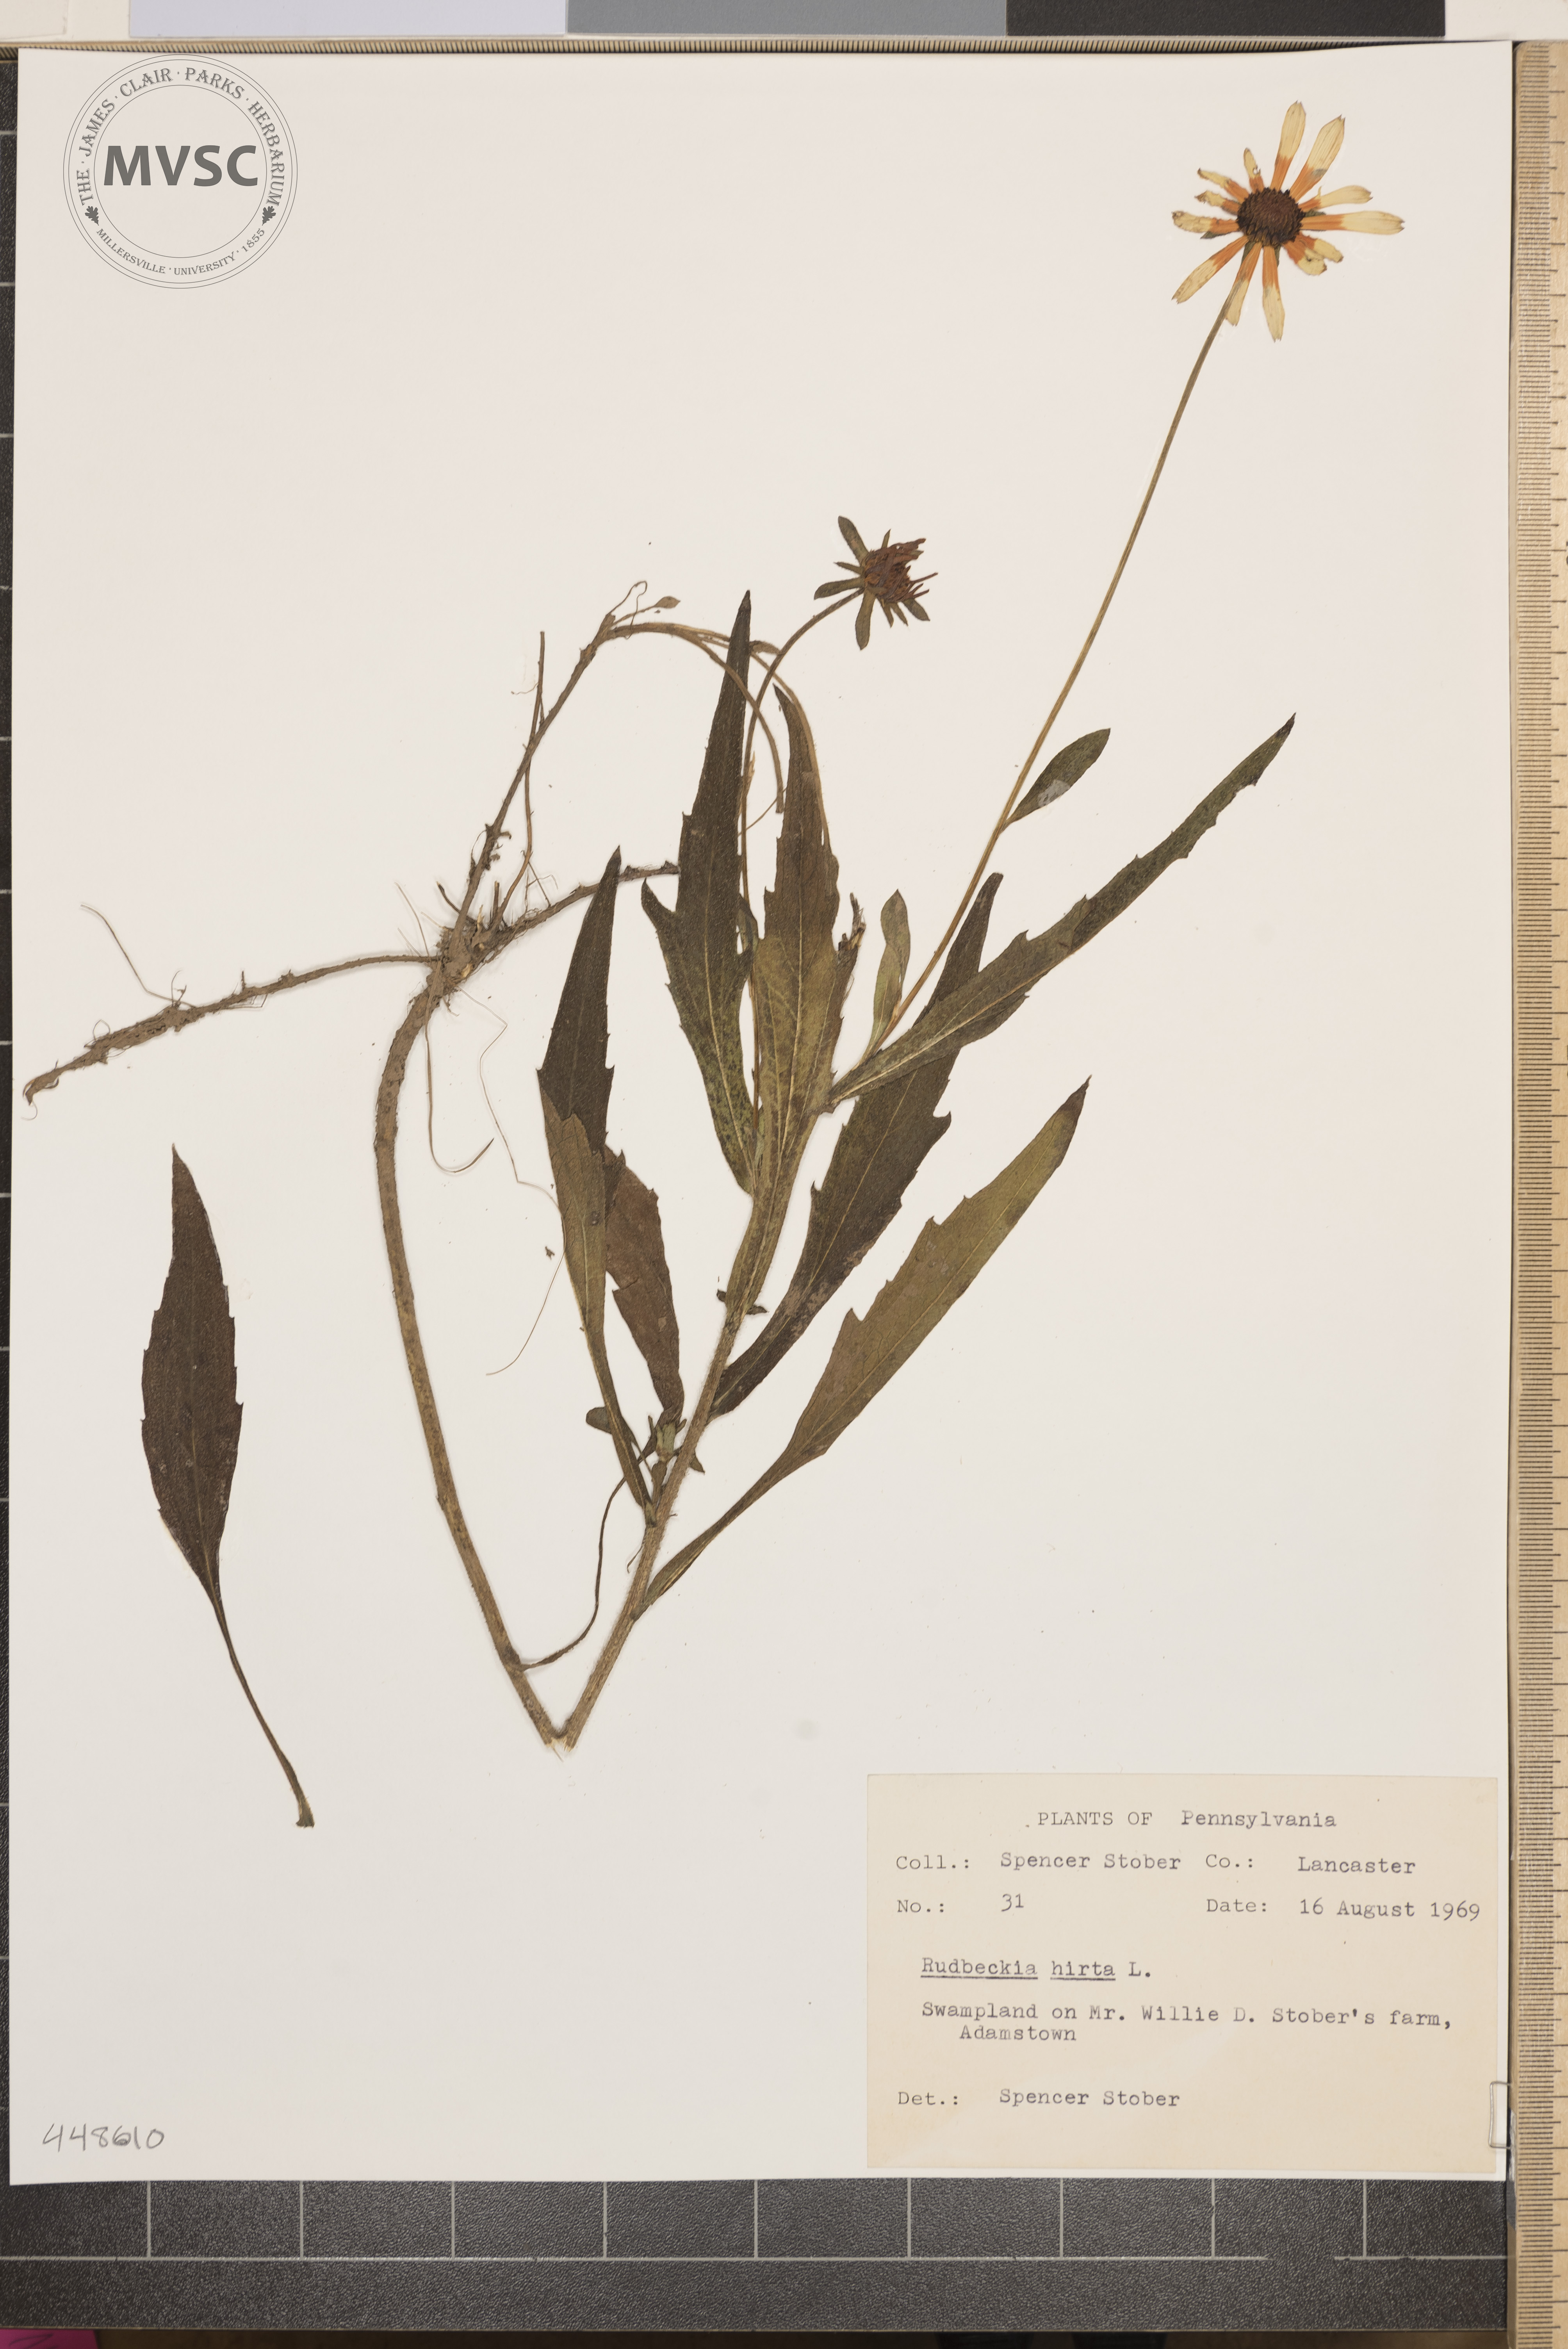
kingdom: Plantae
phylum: Tracheophyta
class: Magnoliopsida
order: Asterales
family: Asteraceae
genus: Rudbeckia
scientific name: Rudbeckia hirta
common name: Black-eyed-susan
